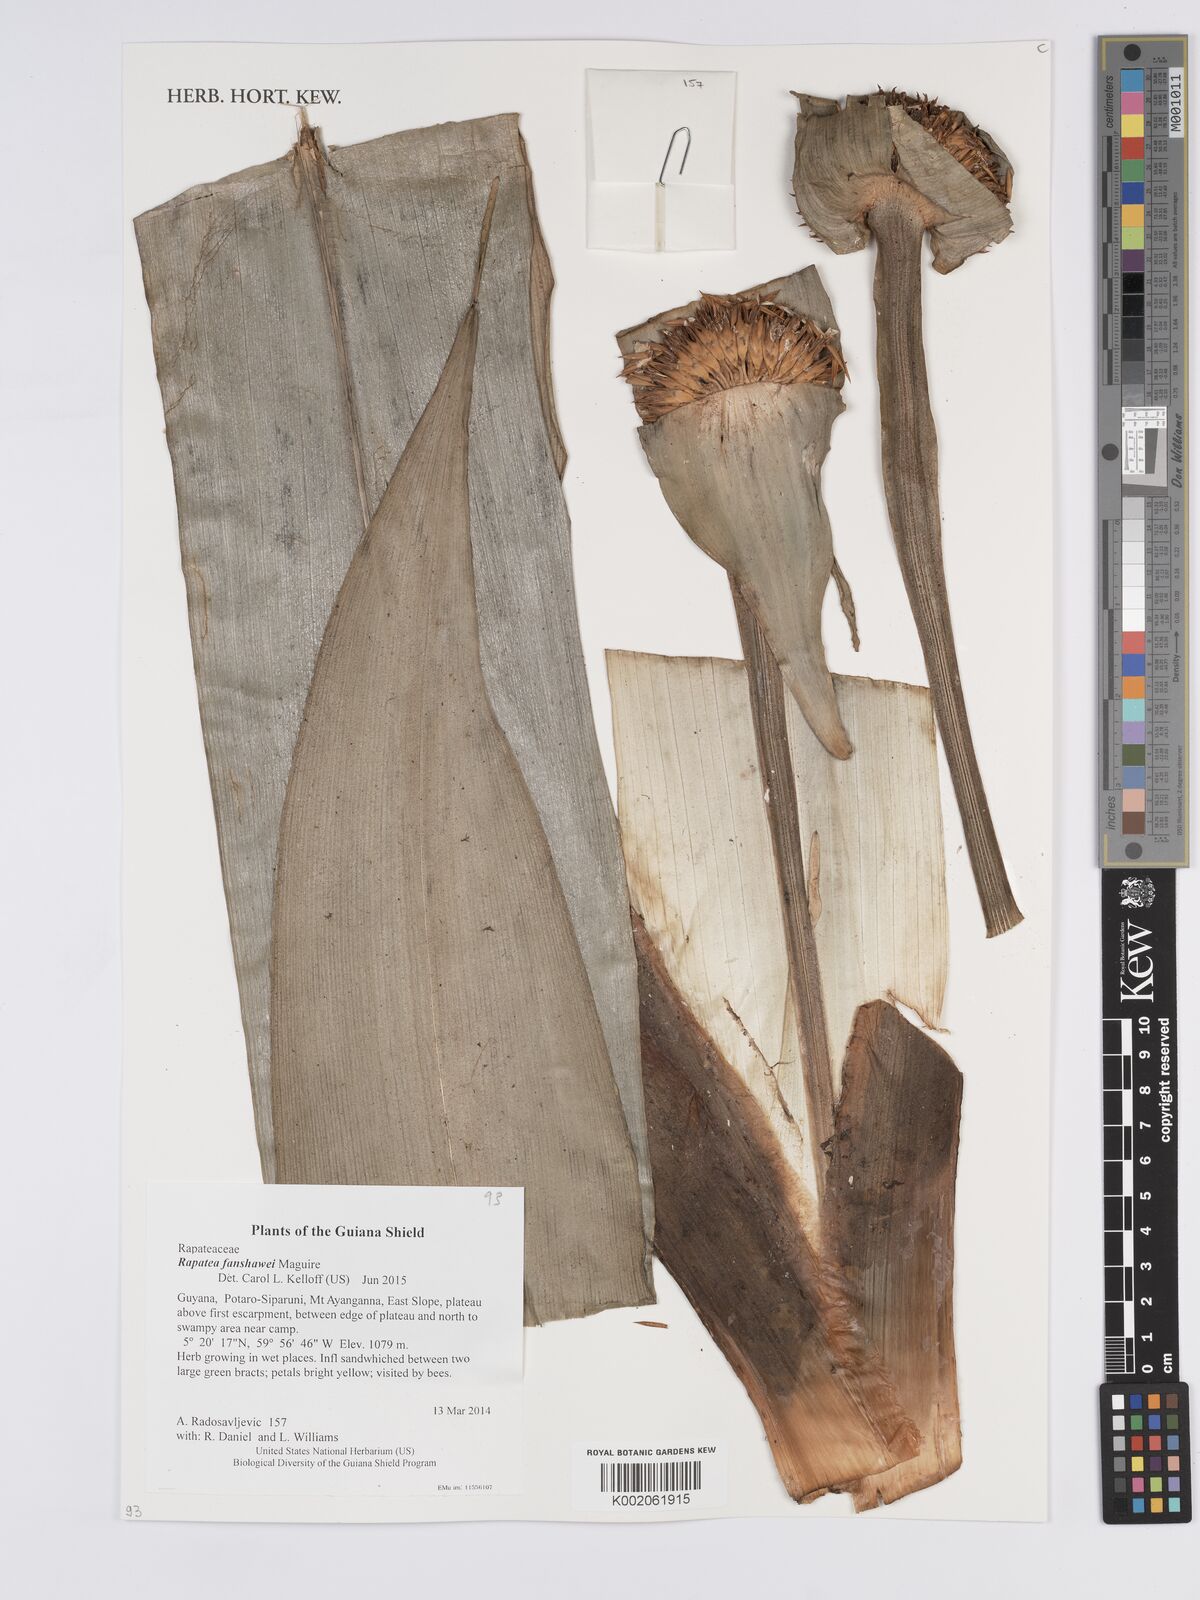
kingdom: Plantae
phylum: Tracheophyta
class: Liliopsida
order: Poales
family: Rapateaceae
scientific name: Rapateaceae
